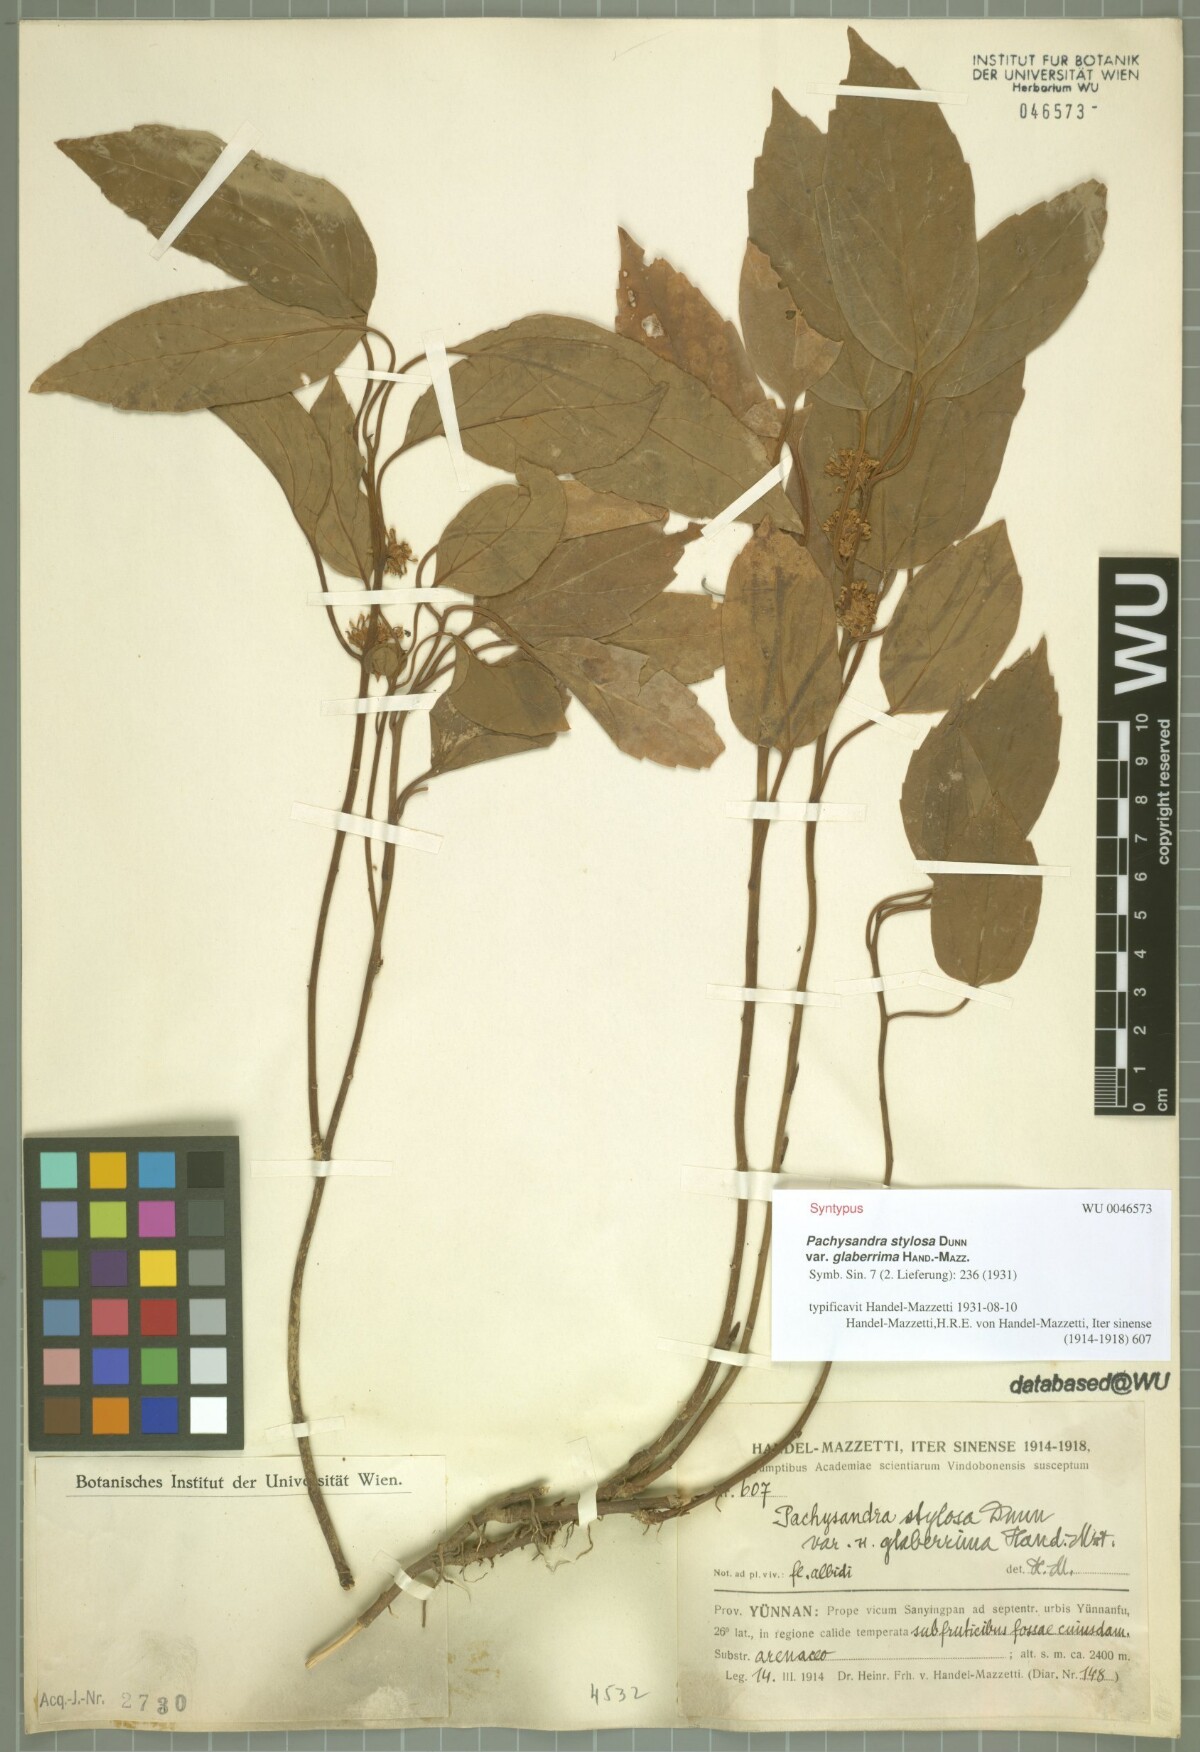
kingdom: Plantae
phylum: Tracheophyta
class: Magnoliopsida
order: Buxales
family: Buxaceae
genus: Pachysandra
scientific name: Pachysandra axillaris
